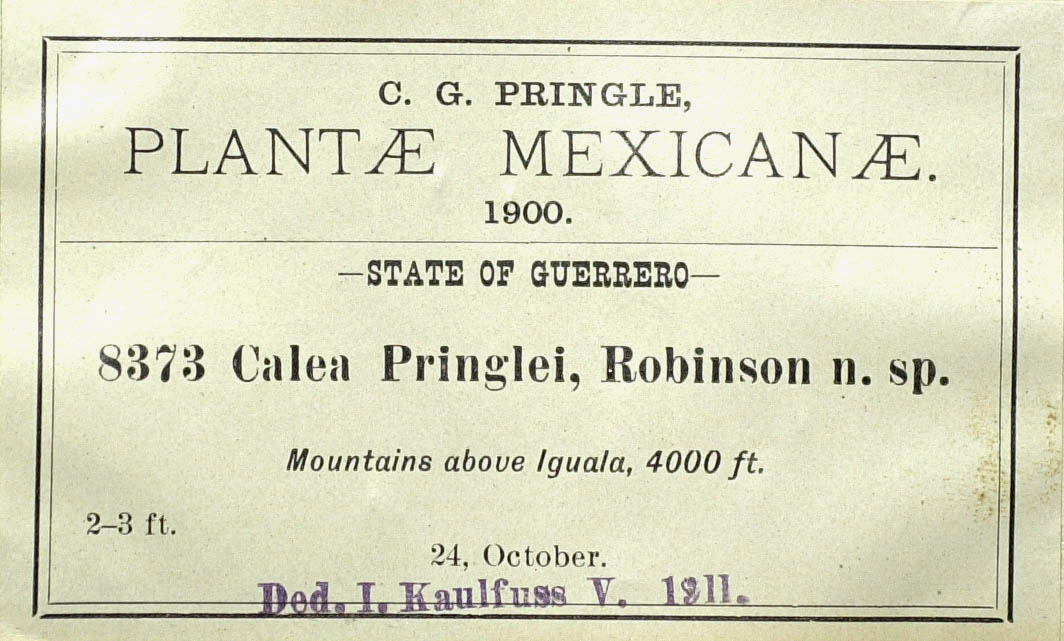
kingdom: Plantae
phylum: Tracheophyta
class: Magnoliopsida
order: Asterales
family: Asteraceae
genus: Calea
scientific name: Calea ternifolia
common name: Mexican calea
